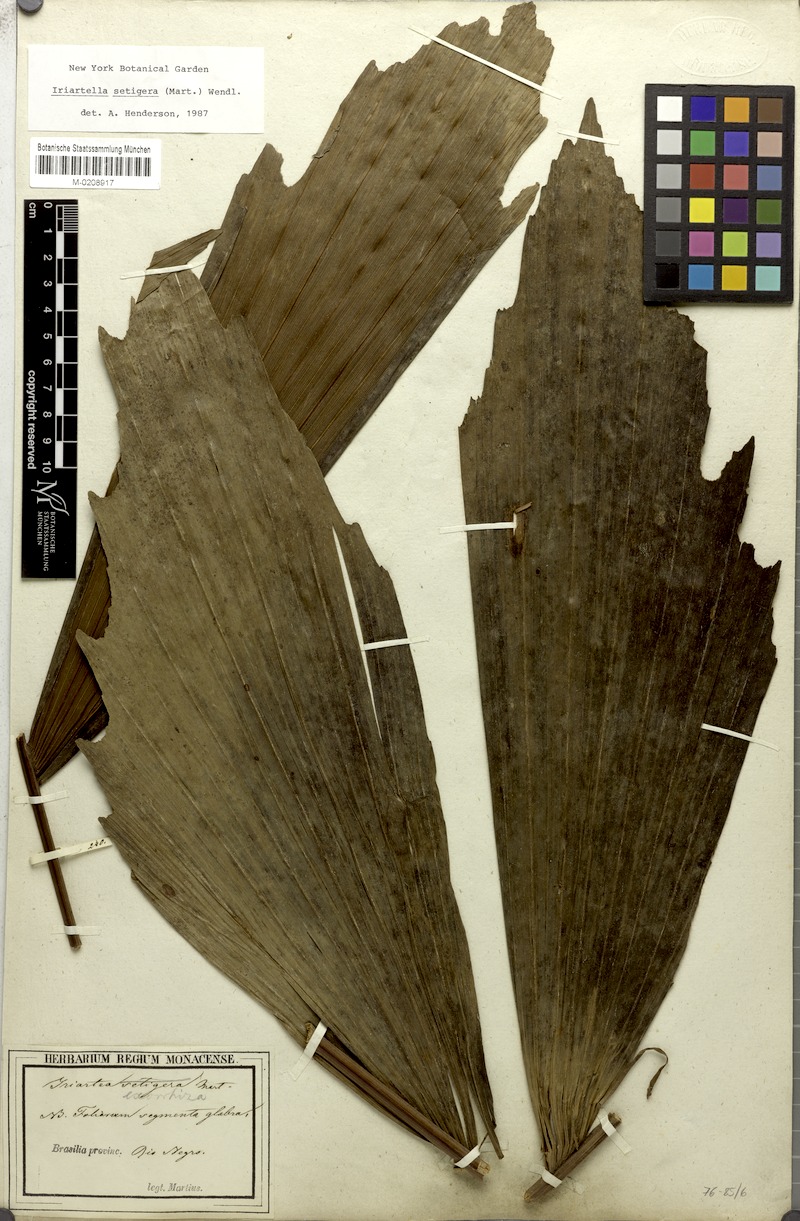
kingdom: Plantae
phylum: Tracheophyta
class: Liliopsida
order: Arecales
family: Arecaceae
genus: Iriartella
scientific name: Iriartella setigera
